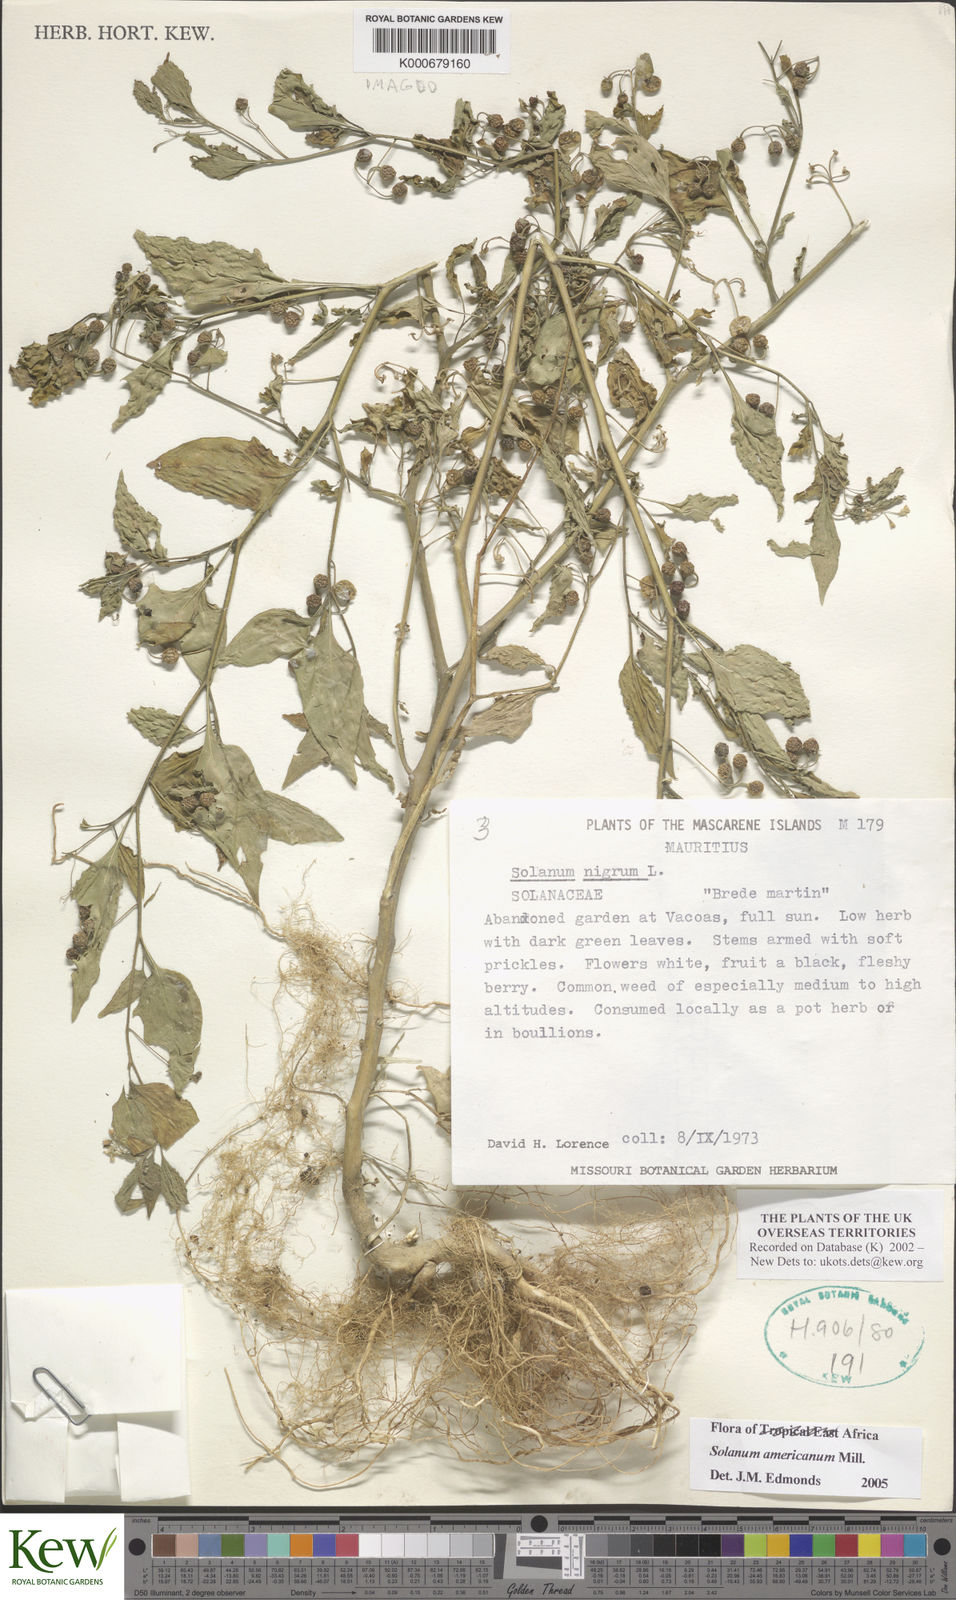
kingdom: Plantae
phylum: Tracheophyta
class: Magnoliopsida
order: Solanales
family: Solanaceae
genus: Solanum
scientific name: Solanum americanum
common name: American black nightshade
